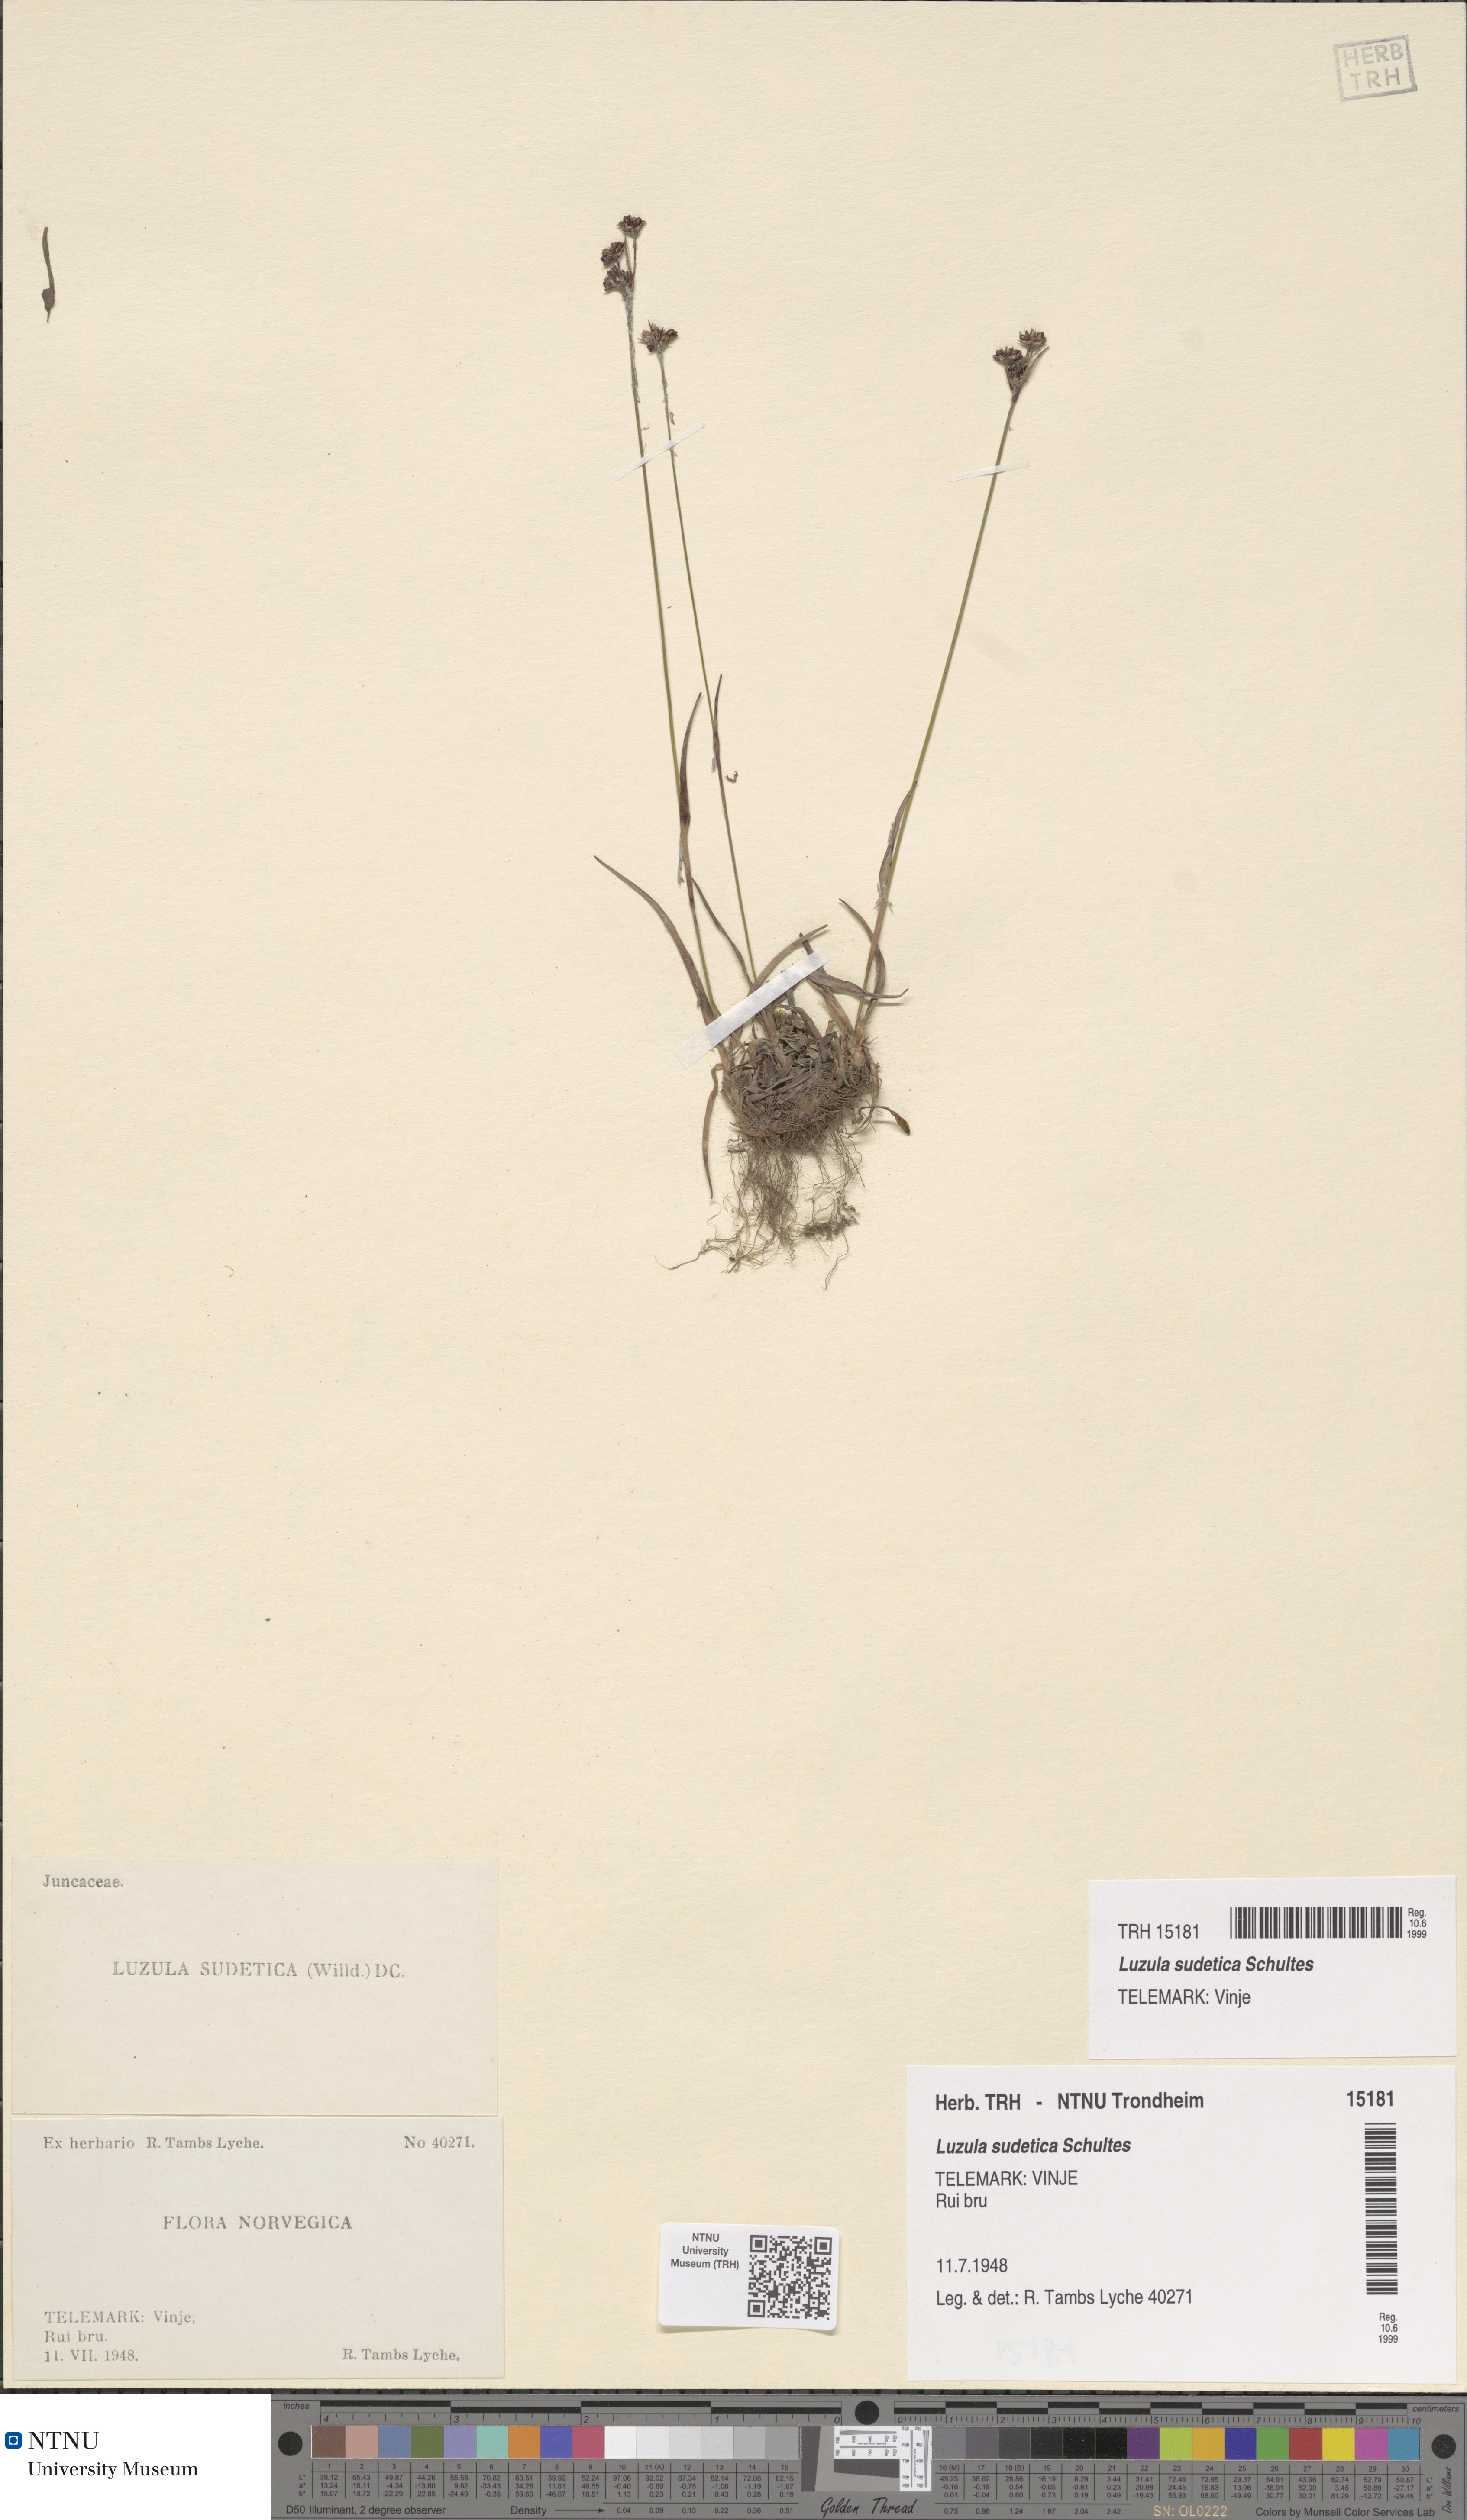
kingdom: Plantae
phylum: Tracheophyta
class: Liliopsida
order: Poales
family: Juncaceae
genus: Luzula
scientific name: Luzula sudetica
